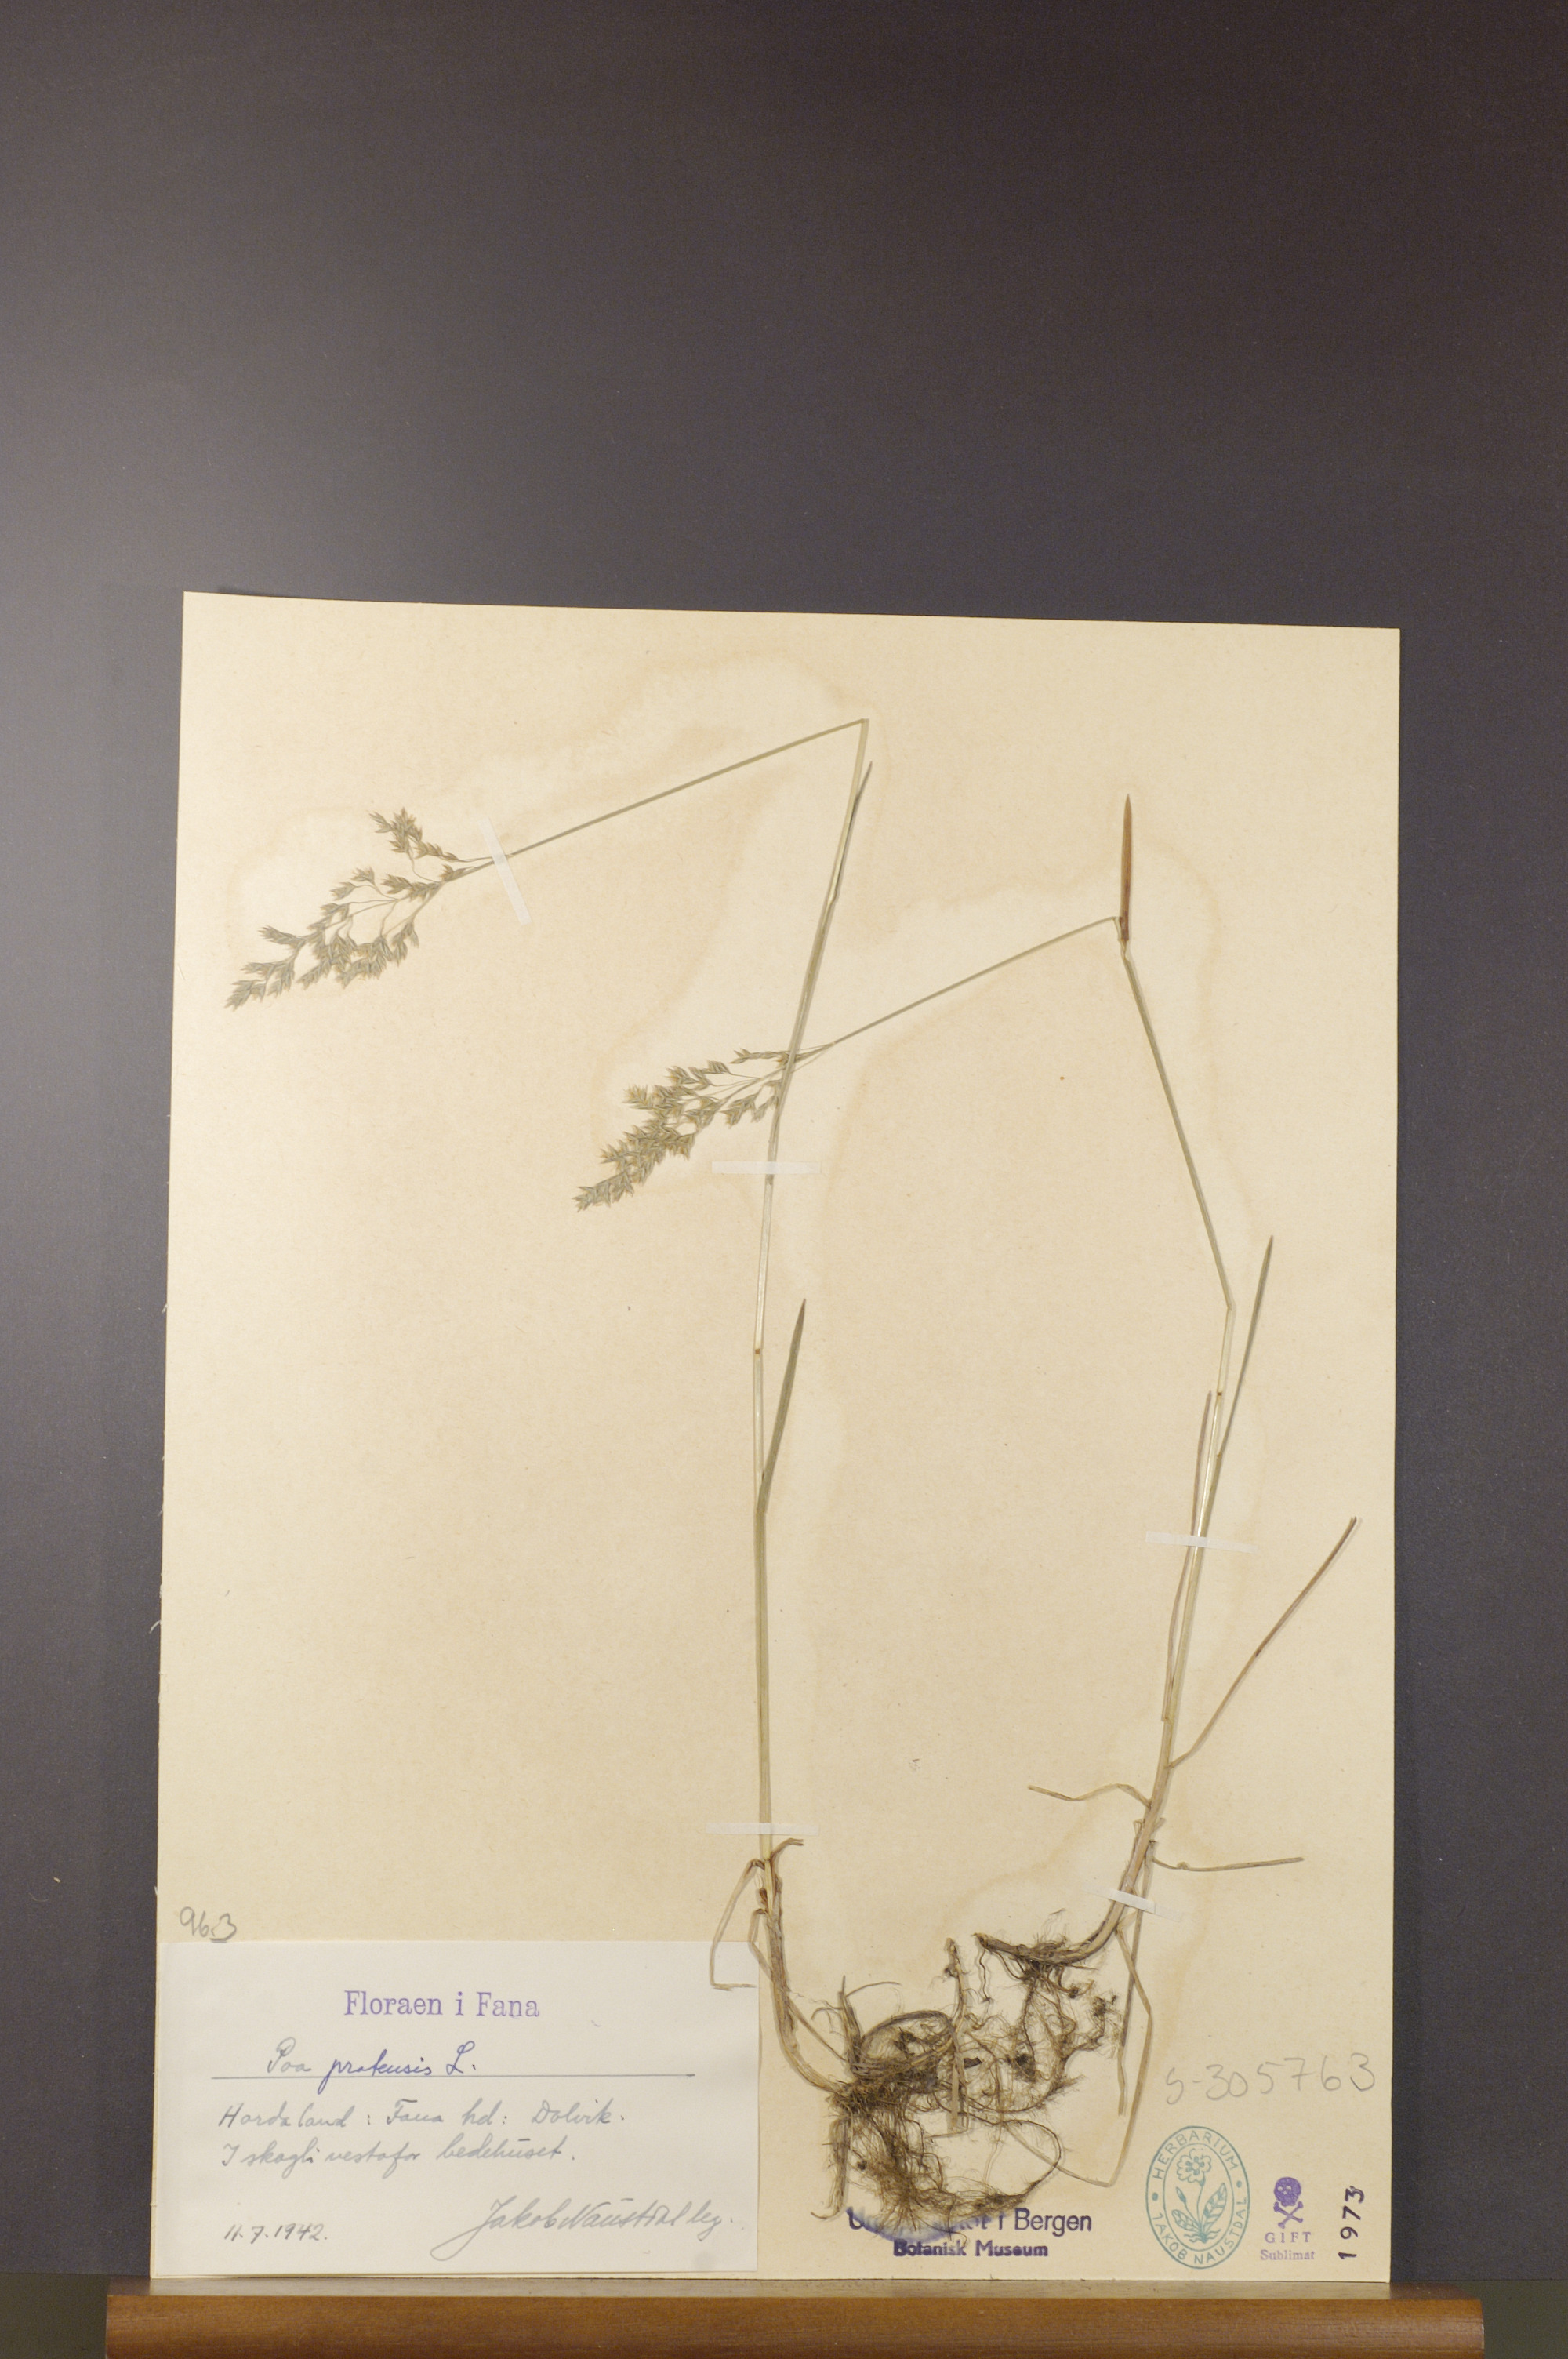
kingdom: Plantae
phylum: Tracheophyta
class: Liliopsida
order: Poales
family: Poaceae
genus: Poa
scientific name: Poa pratensis
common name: Kentucky bluegrass
